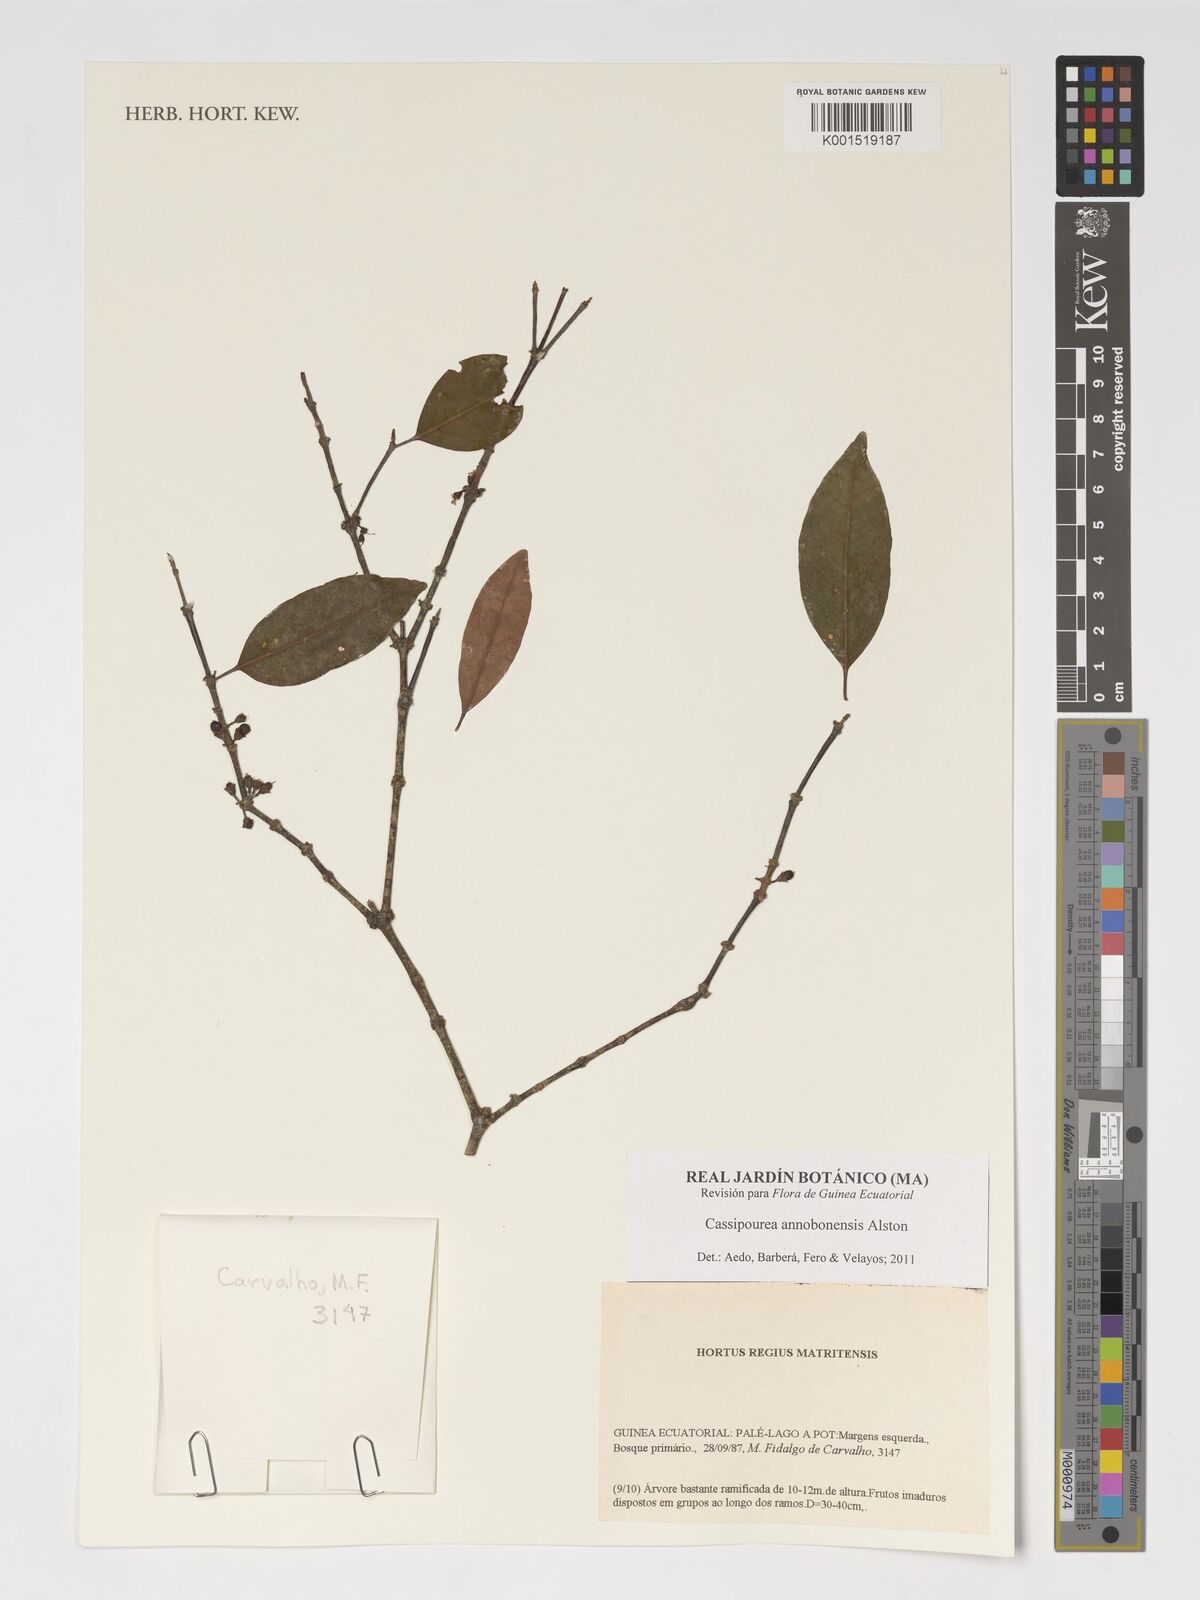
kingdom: Plantae
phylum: Tracheophyta
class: Magnoliopsida
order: Malpighiales
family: Rhizophoraceae
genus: Cassipourea
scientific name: Cassipourea annobonensis
